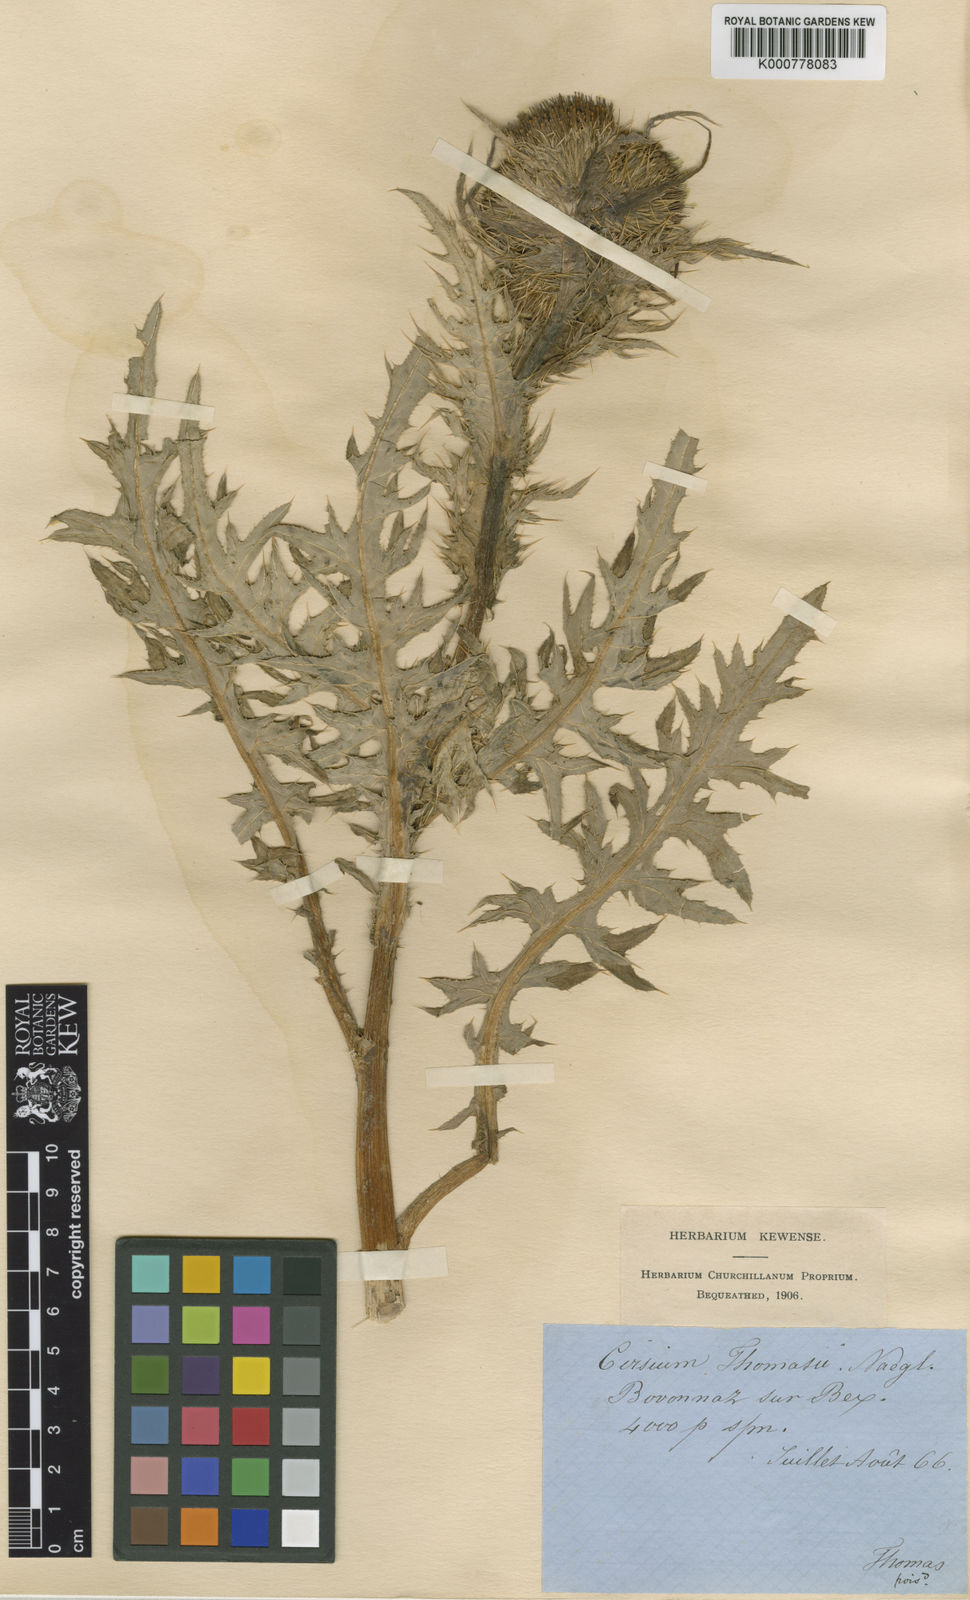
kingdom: Plantae
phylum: Tracheophyta
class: Magnoliopsida
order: Asterales
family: Asteraceae
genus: Cirsium
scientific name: Cirsium oleraceum
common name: Cabbage thistle
